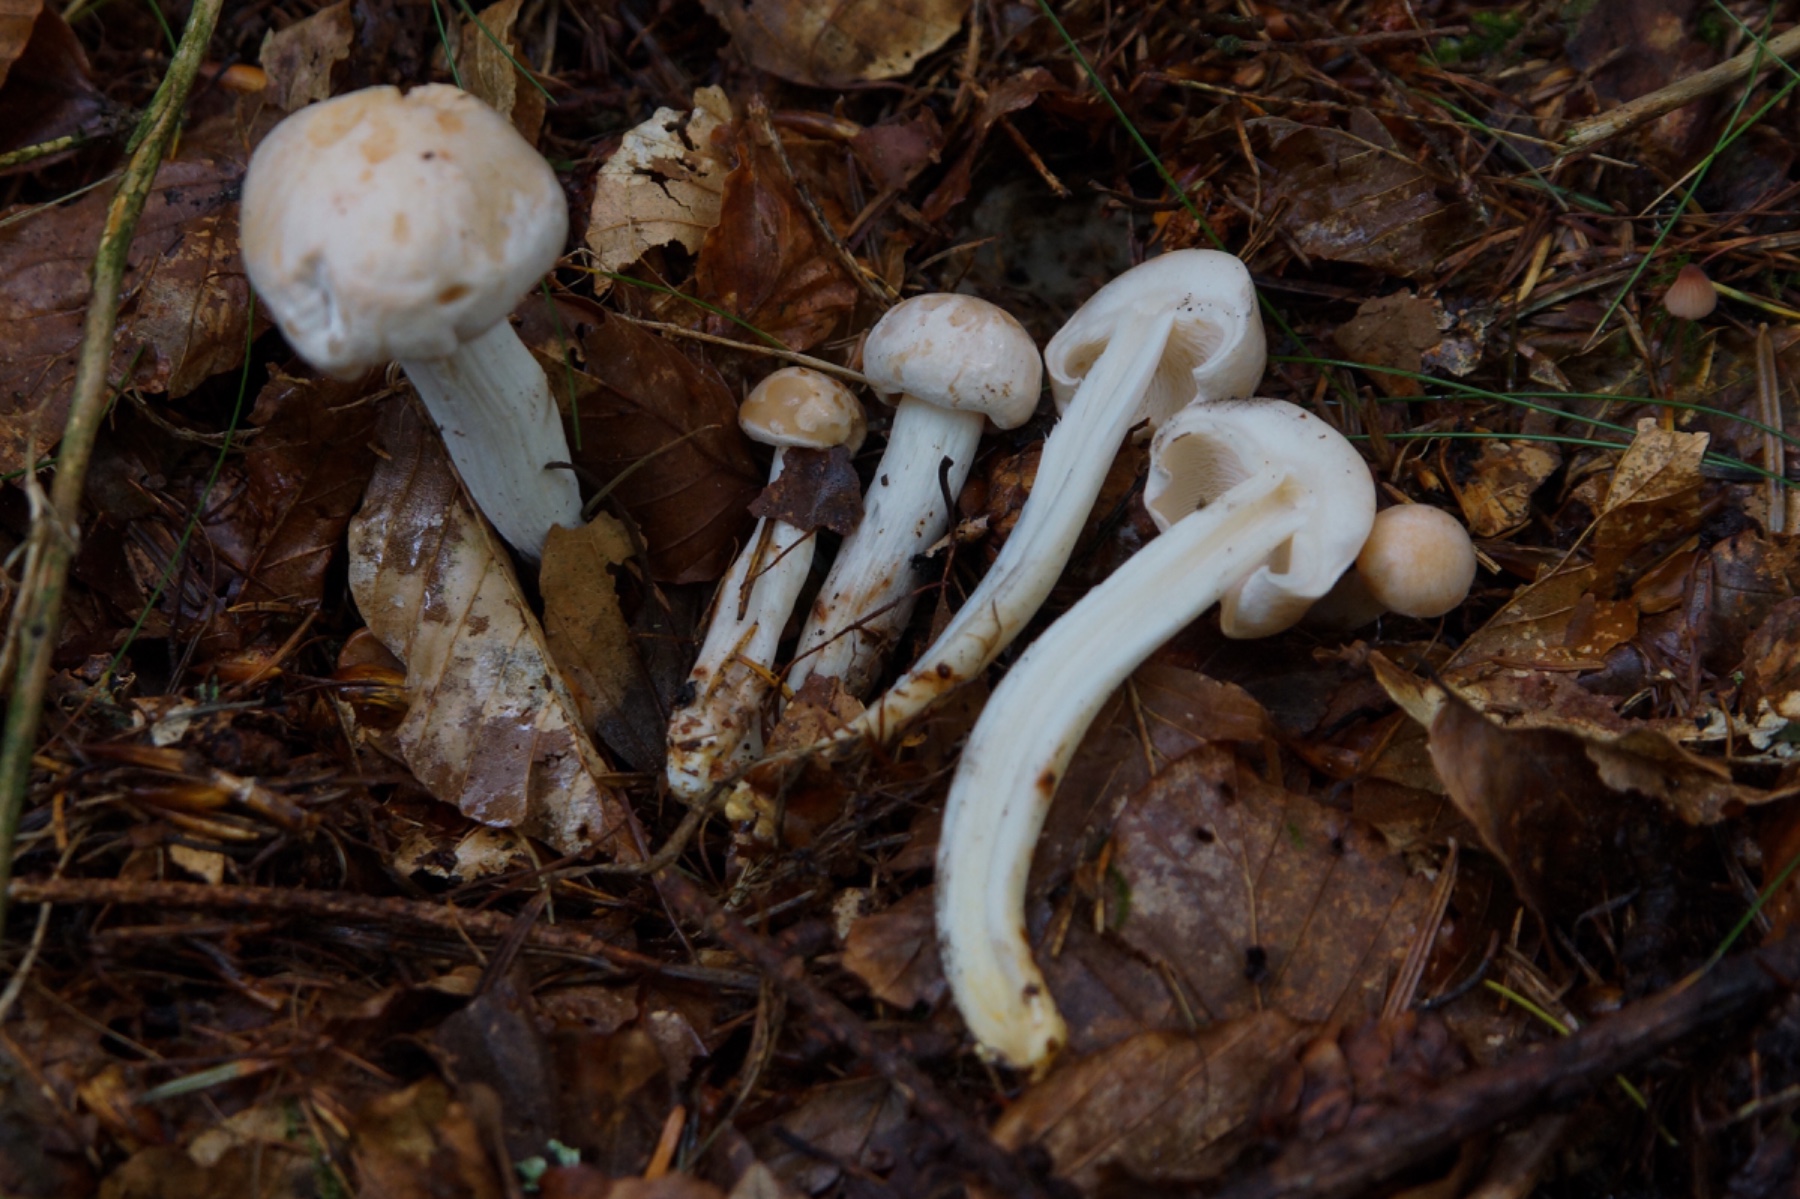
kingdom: Fungi
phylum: Basidiomycota
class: Agaricomycetes
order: Agaricales
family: Omphalotaceae
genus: Rhodocollybia
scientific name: Rhodocollybia maculata
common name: plettet fladhat
